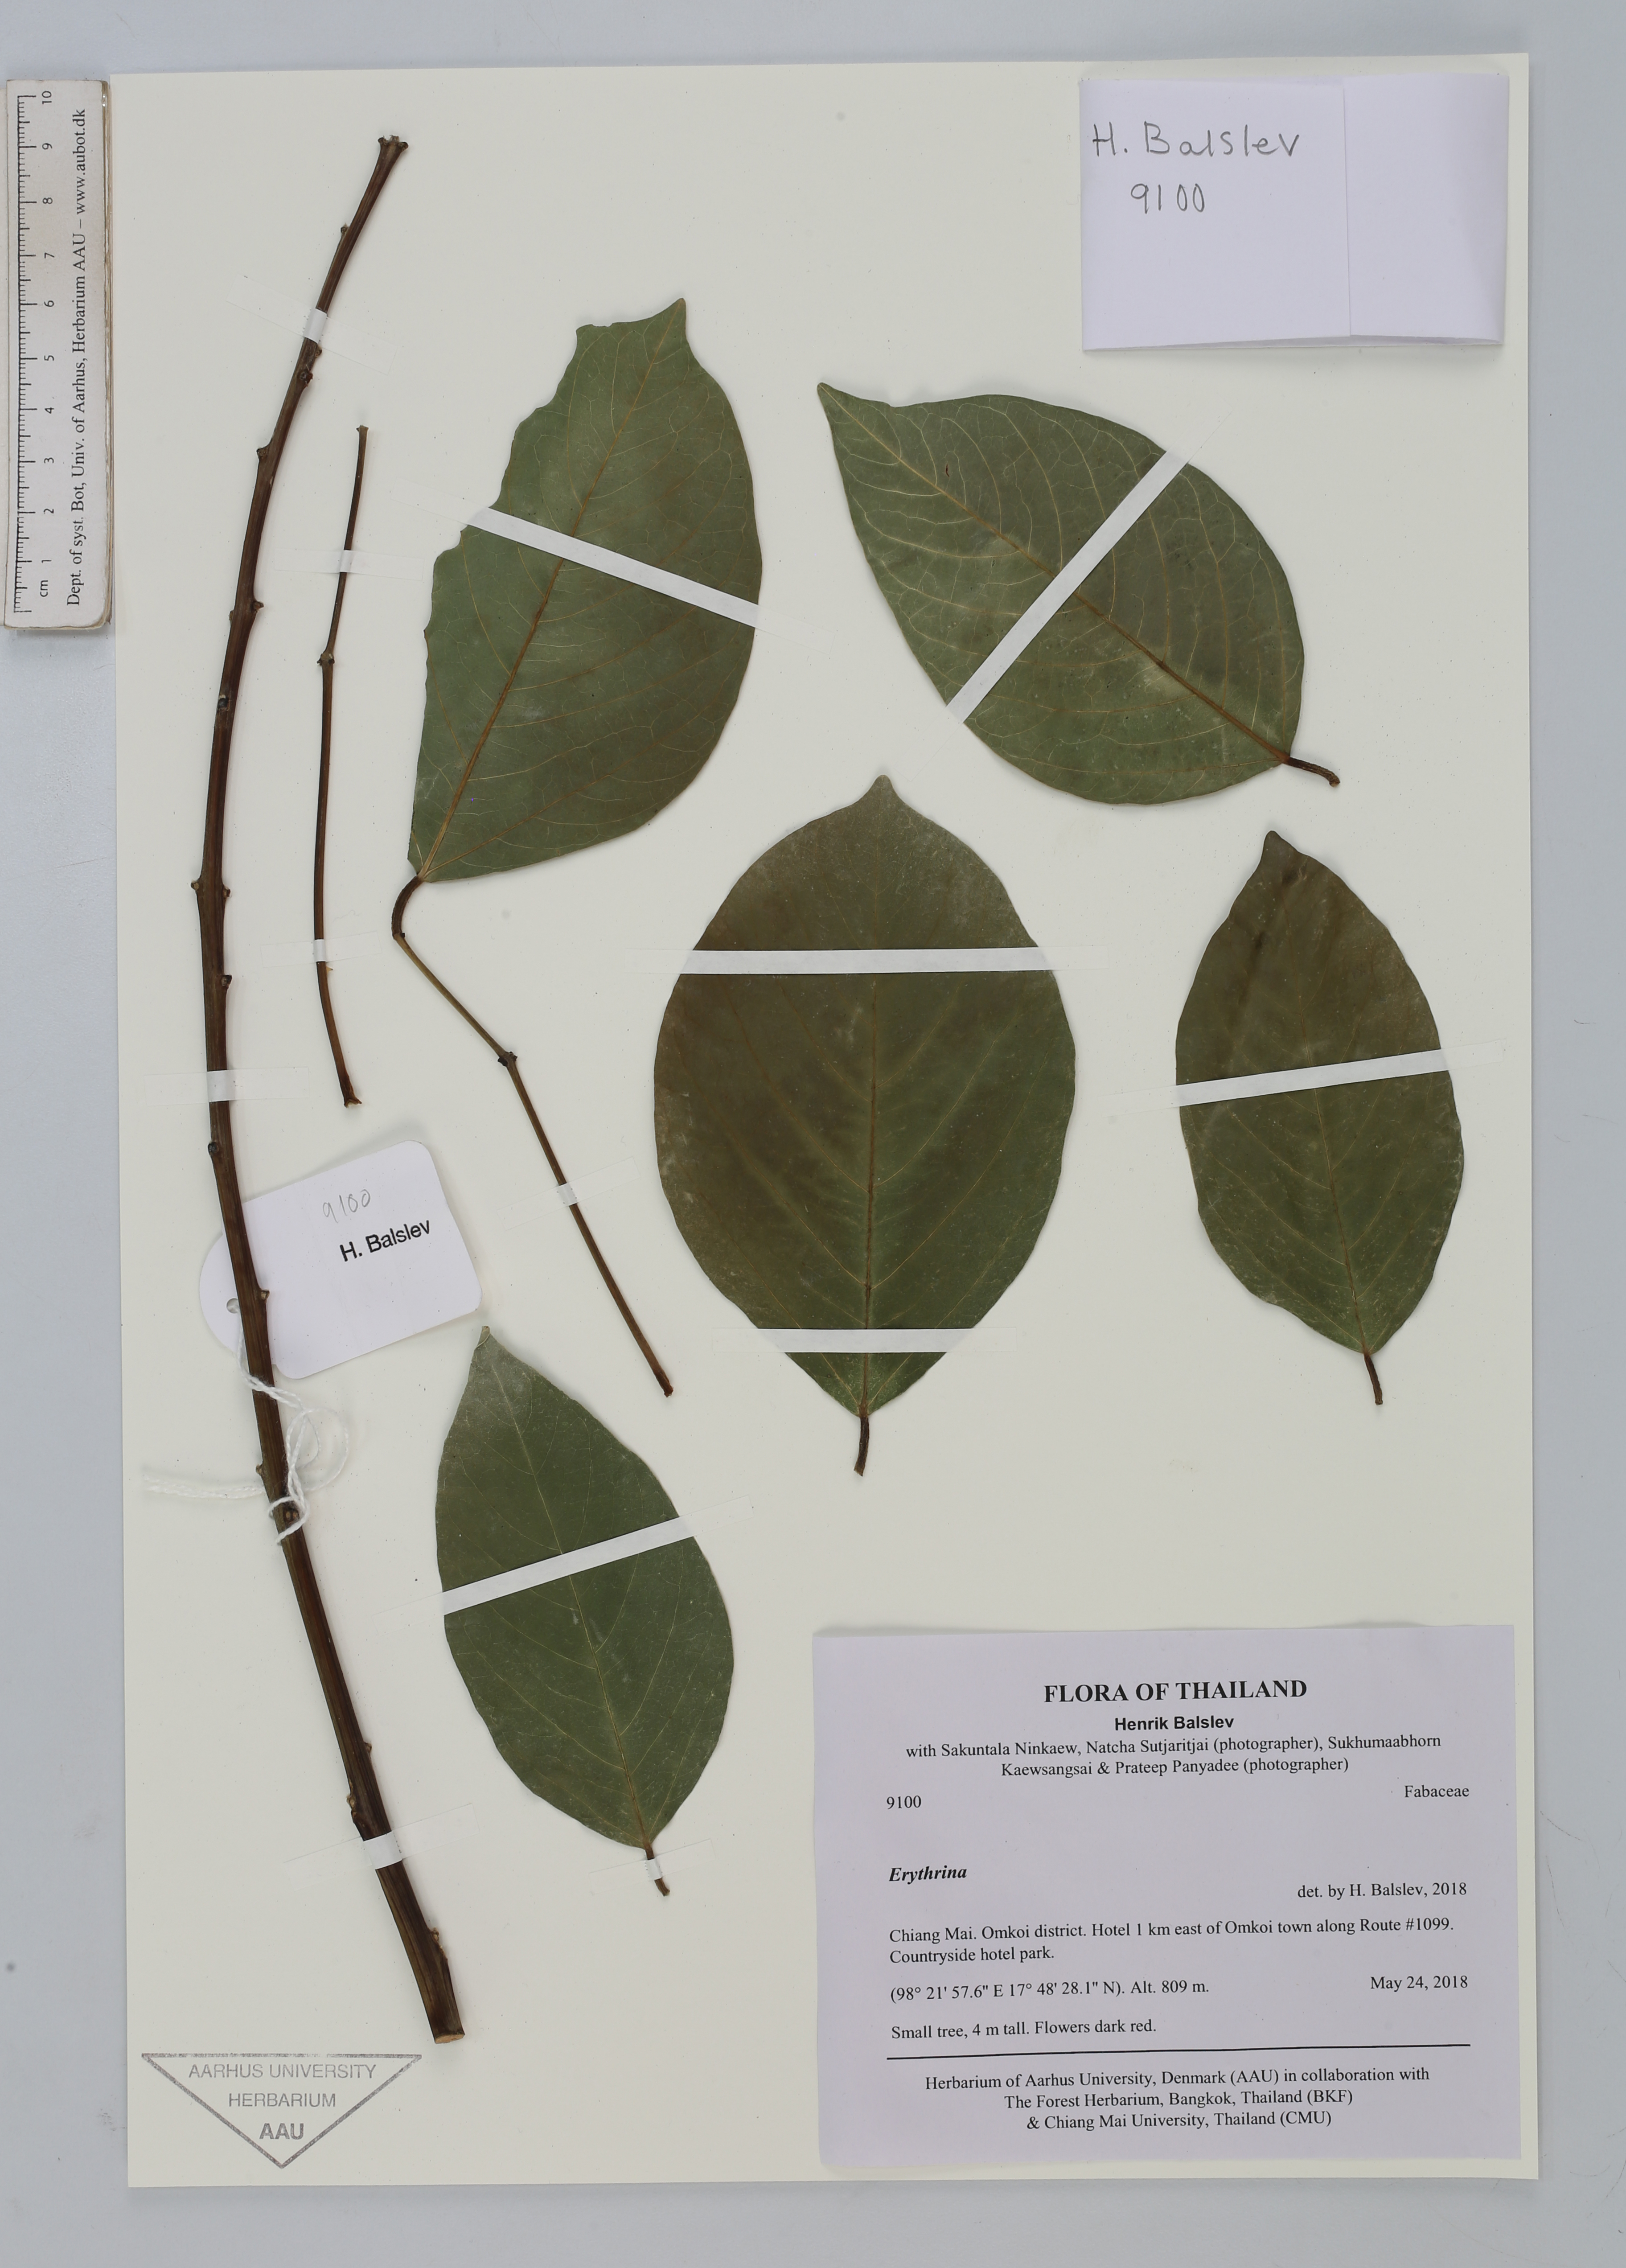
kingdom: Plantae
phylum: Tracheophyta
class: Magnoliopsida
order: Fabales
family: Fabaceae
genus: Erythrina
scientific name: Erythrina
